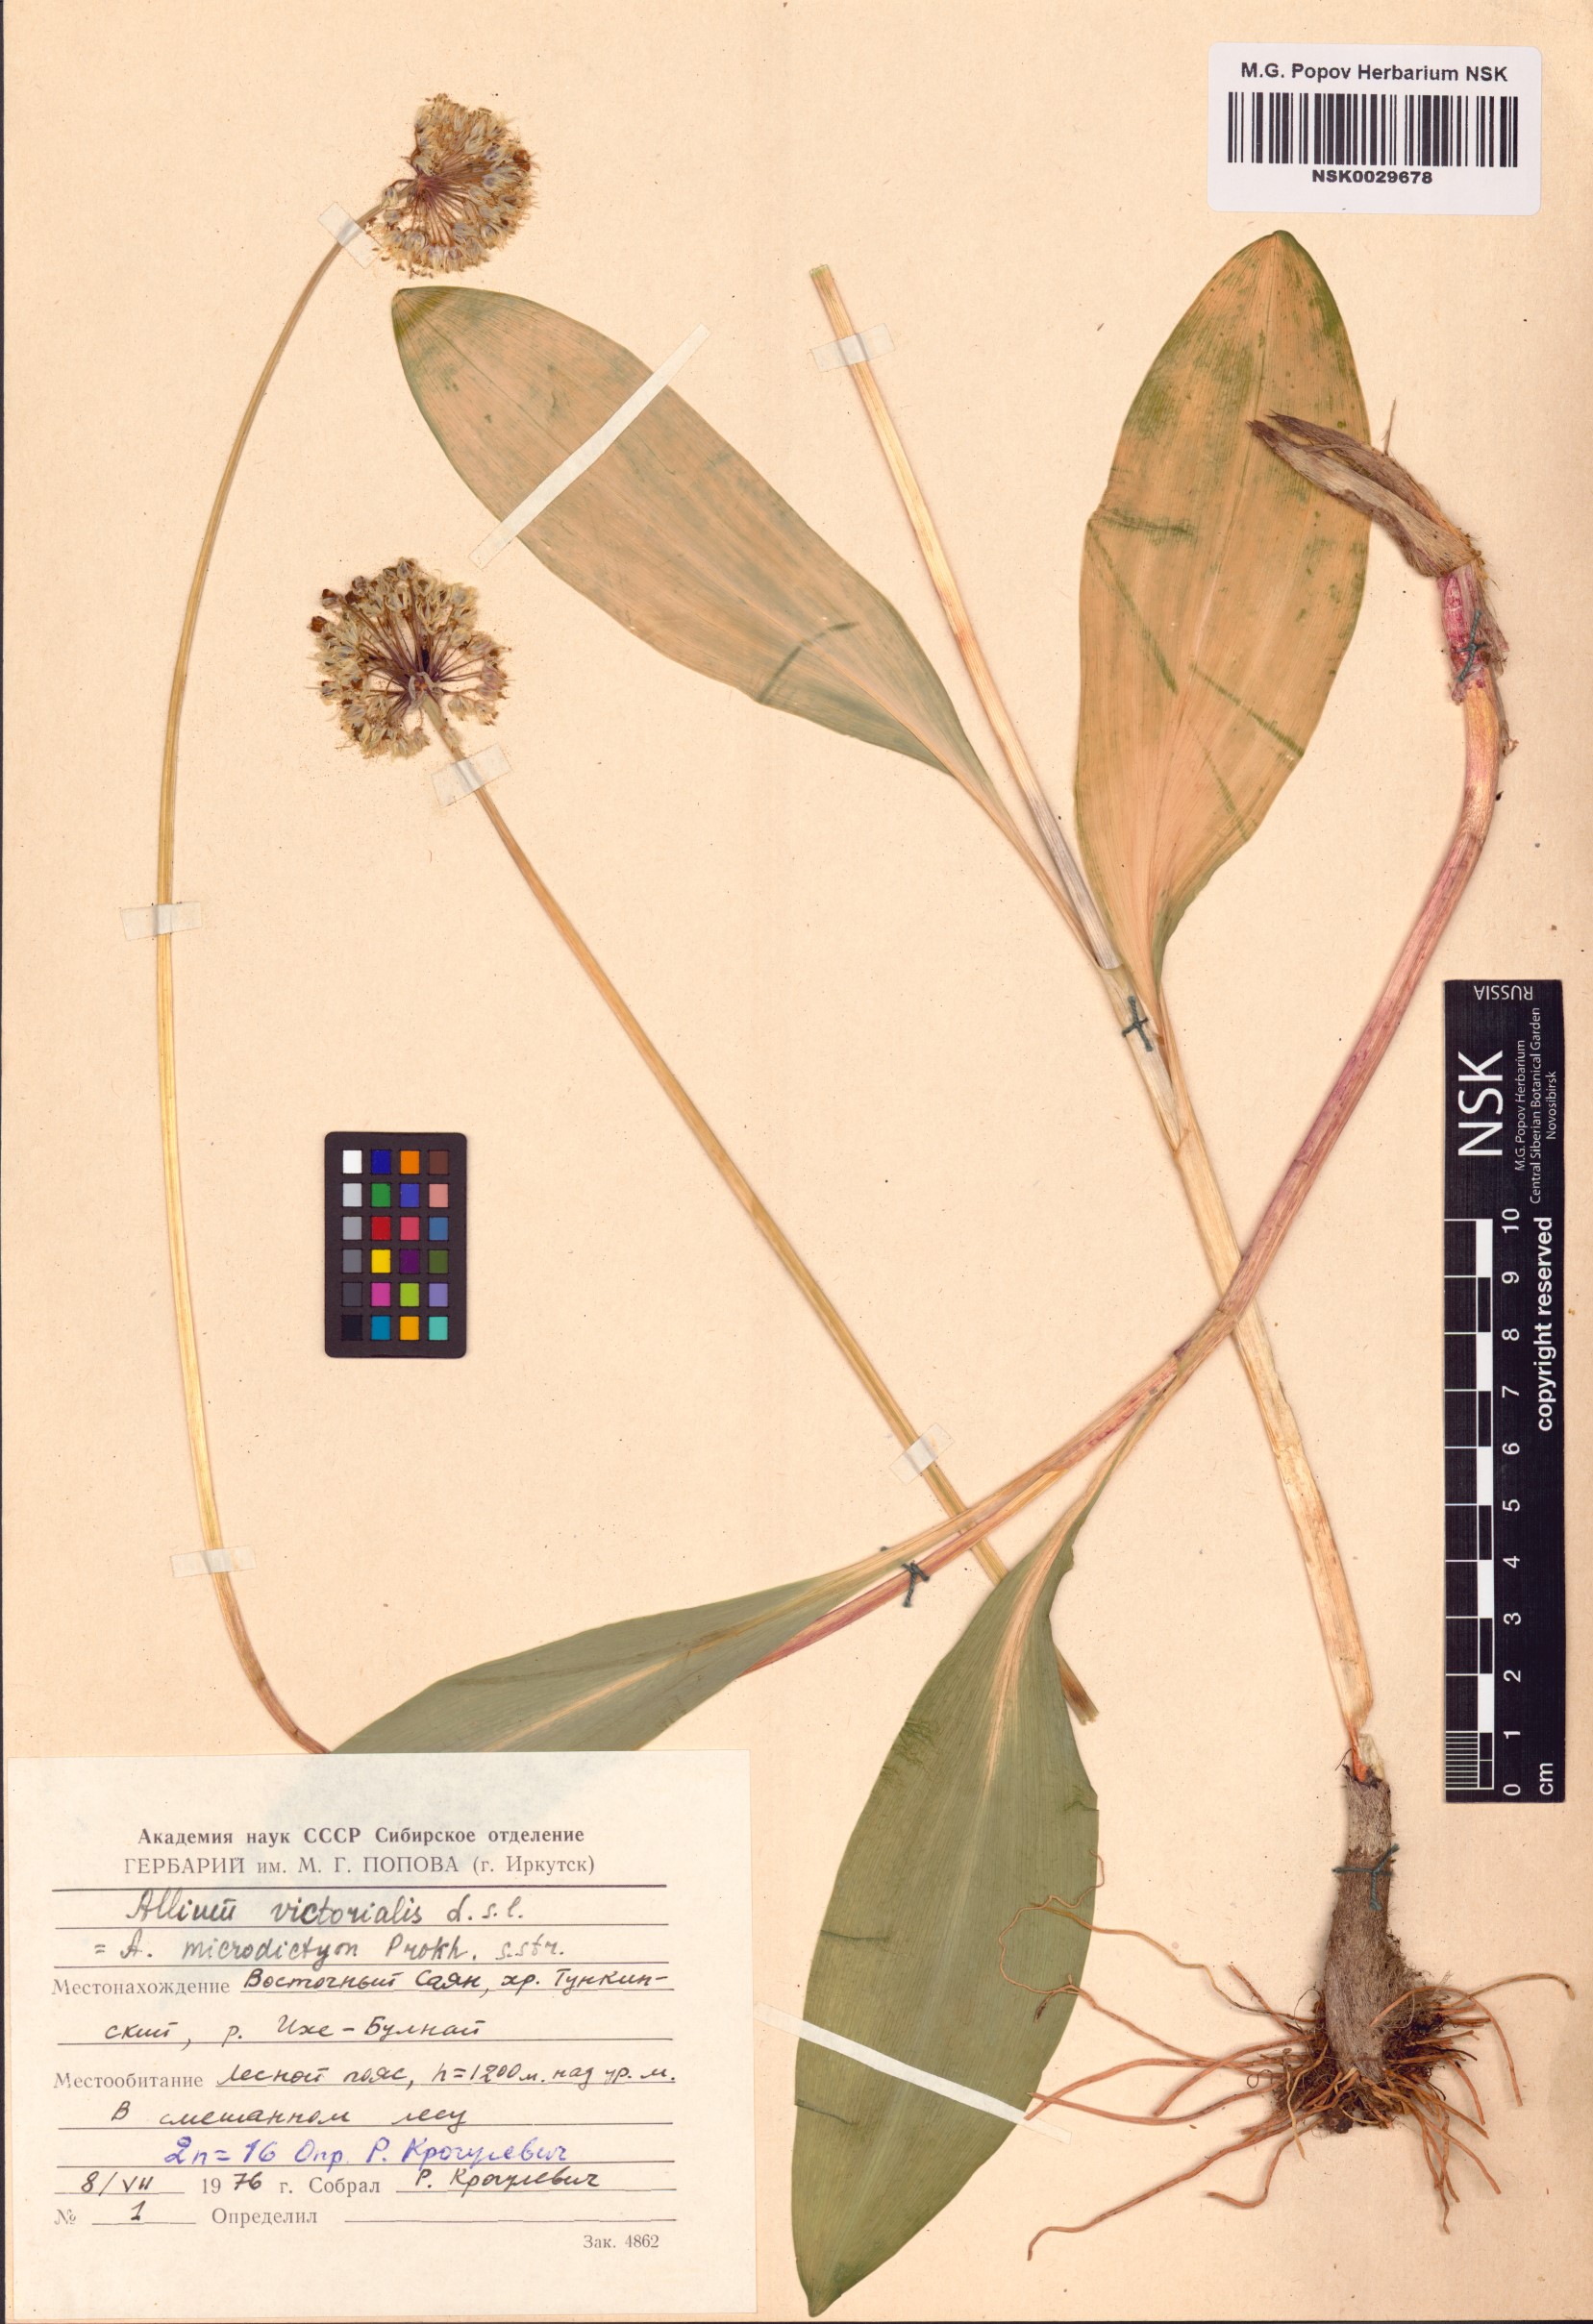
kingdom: Plantae
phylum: Tracheophyta
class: Liliopsida
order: Asparagales
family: Amaryllidaceae
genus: Allium
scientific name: Allium microdictyon
